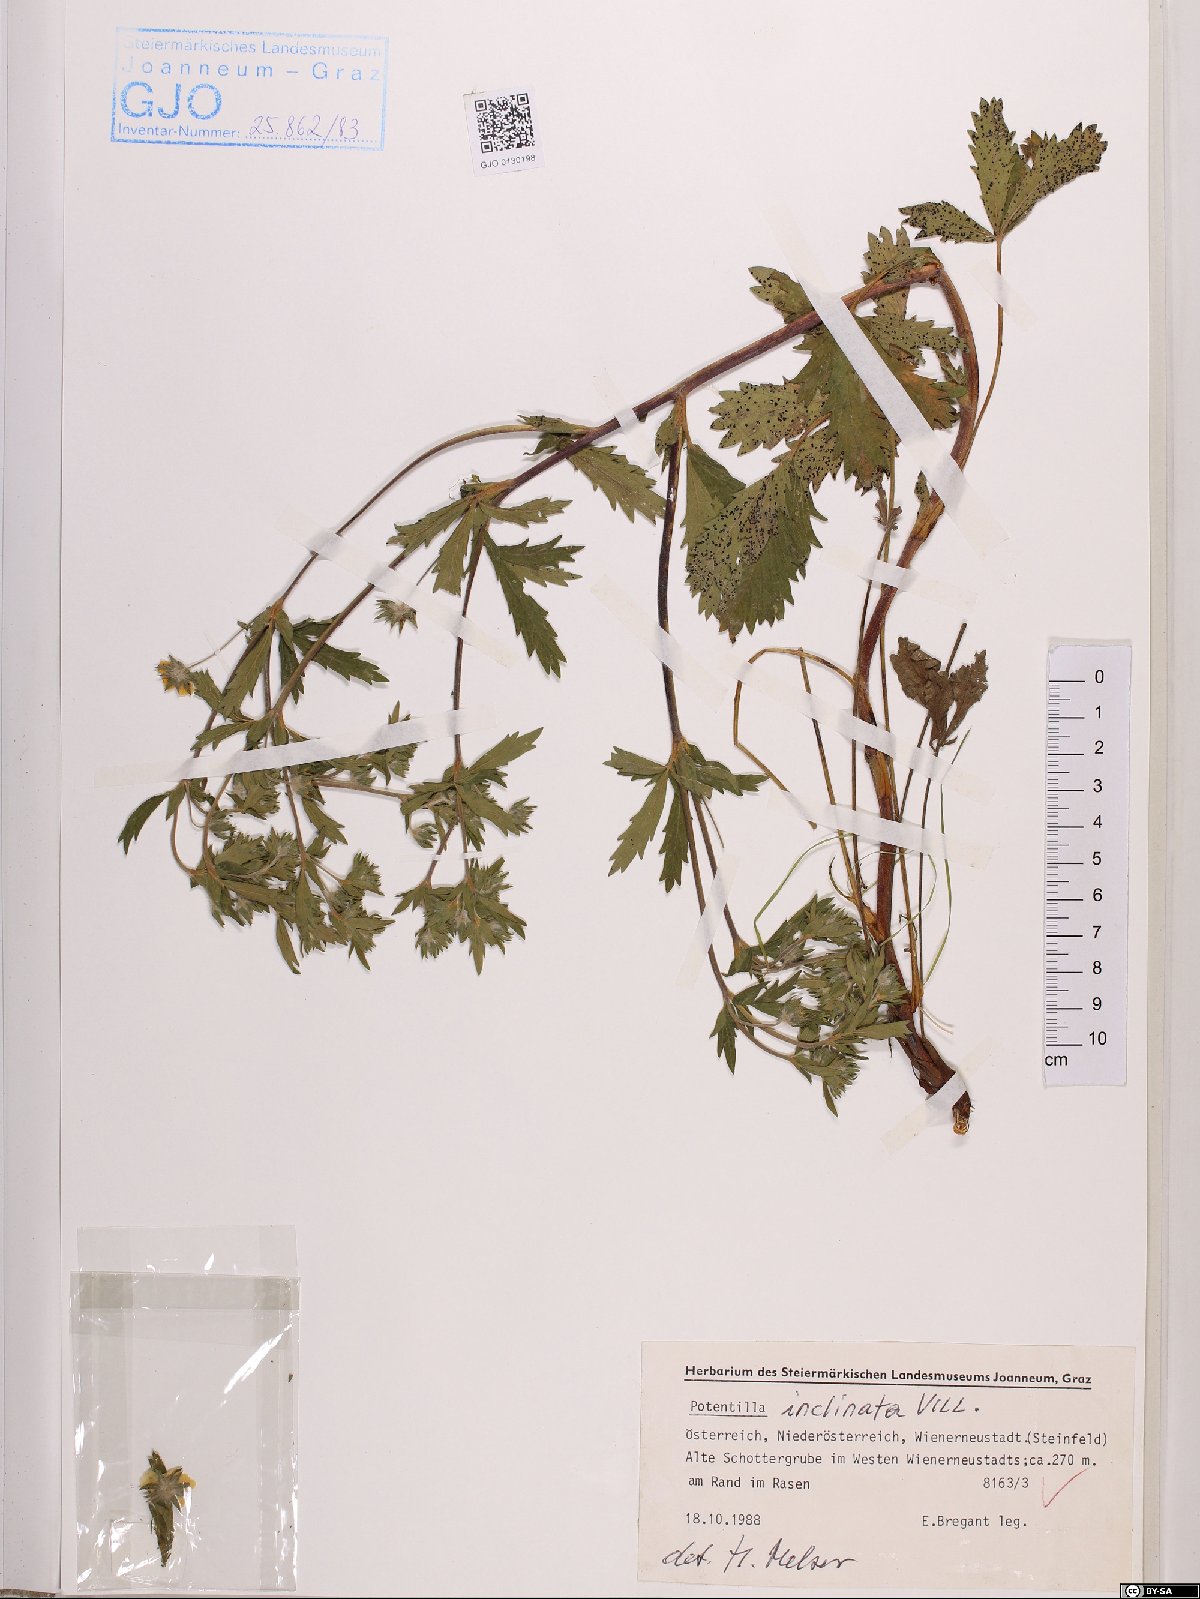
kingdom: Plantae
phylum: Tracheophyta
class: Magnoliopsida
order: Rosales
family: Rosaceae
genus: Potentilla
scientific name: Potentilla inclinata
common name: Grey cinquefoil
